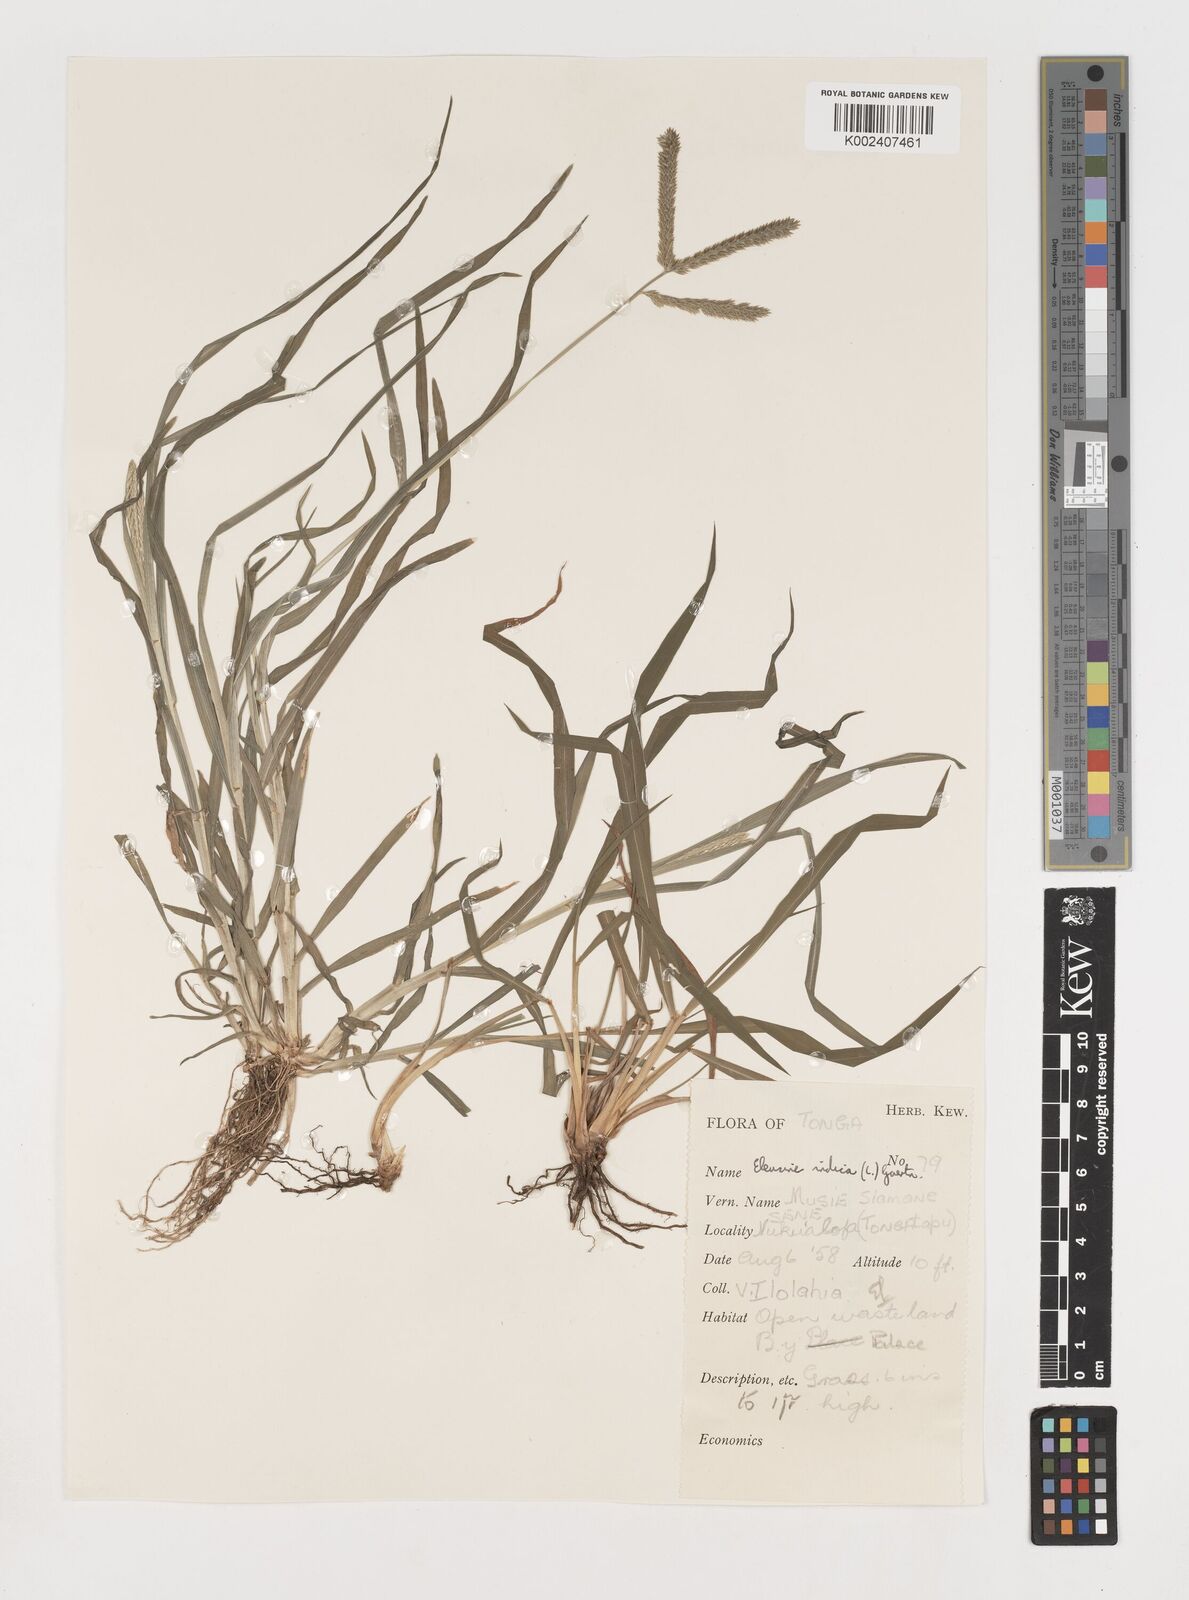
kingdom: Plantae
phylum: Tracheophyta
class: Liliopsida
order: Poales
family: Poaceae
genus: Eleusine
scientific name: Eleusine indica
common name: Yard-grass
